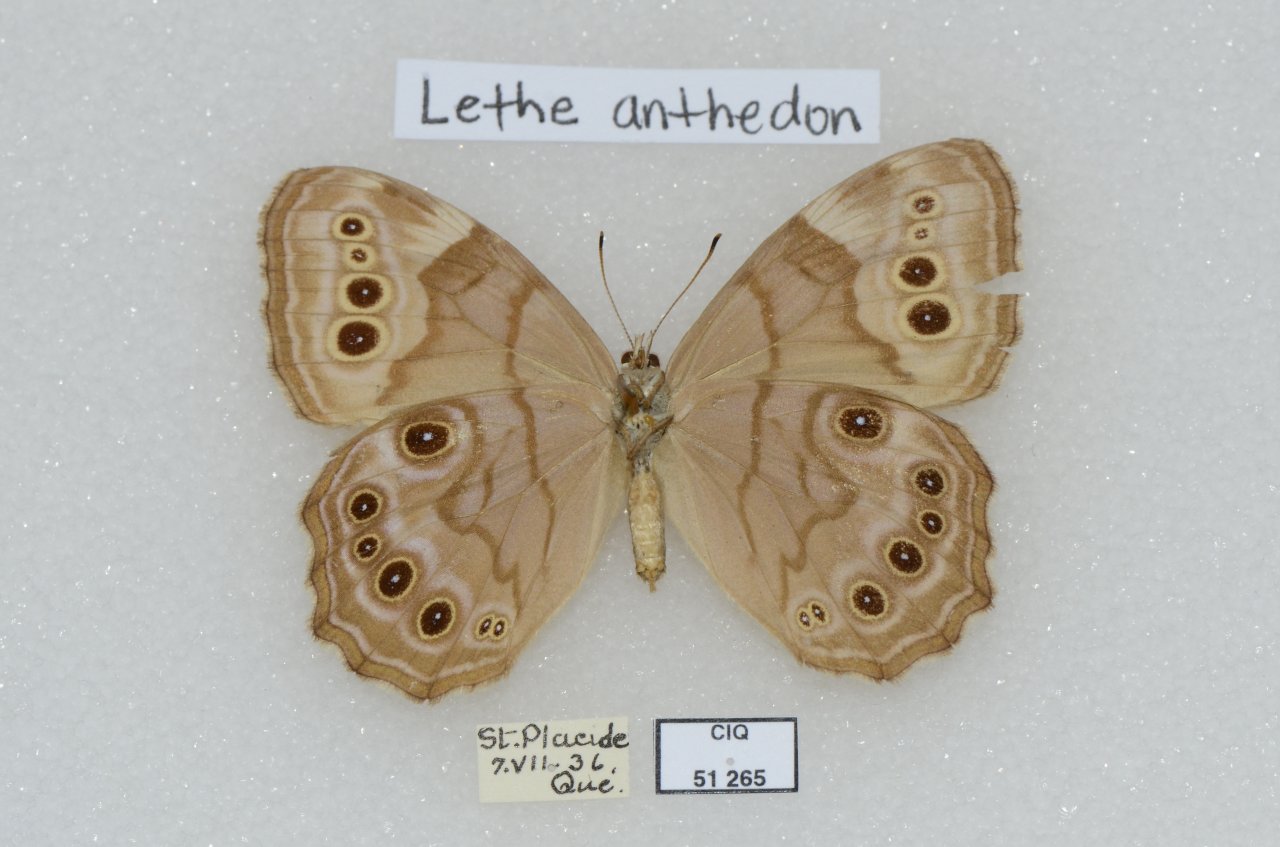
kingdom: Animalia
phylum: Arthropoda
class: Insecta
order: Lepidoptera
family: Nymphalidae
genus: Lethe
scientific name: Lethe anthedon
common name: Northern Pearly-Eye
